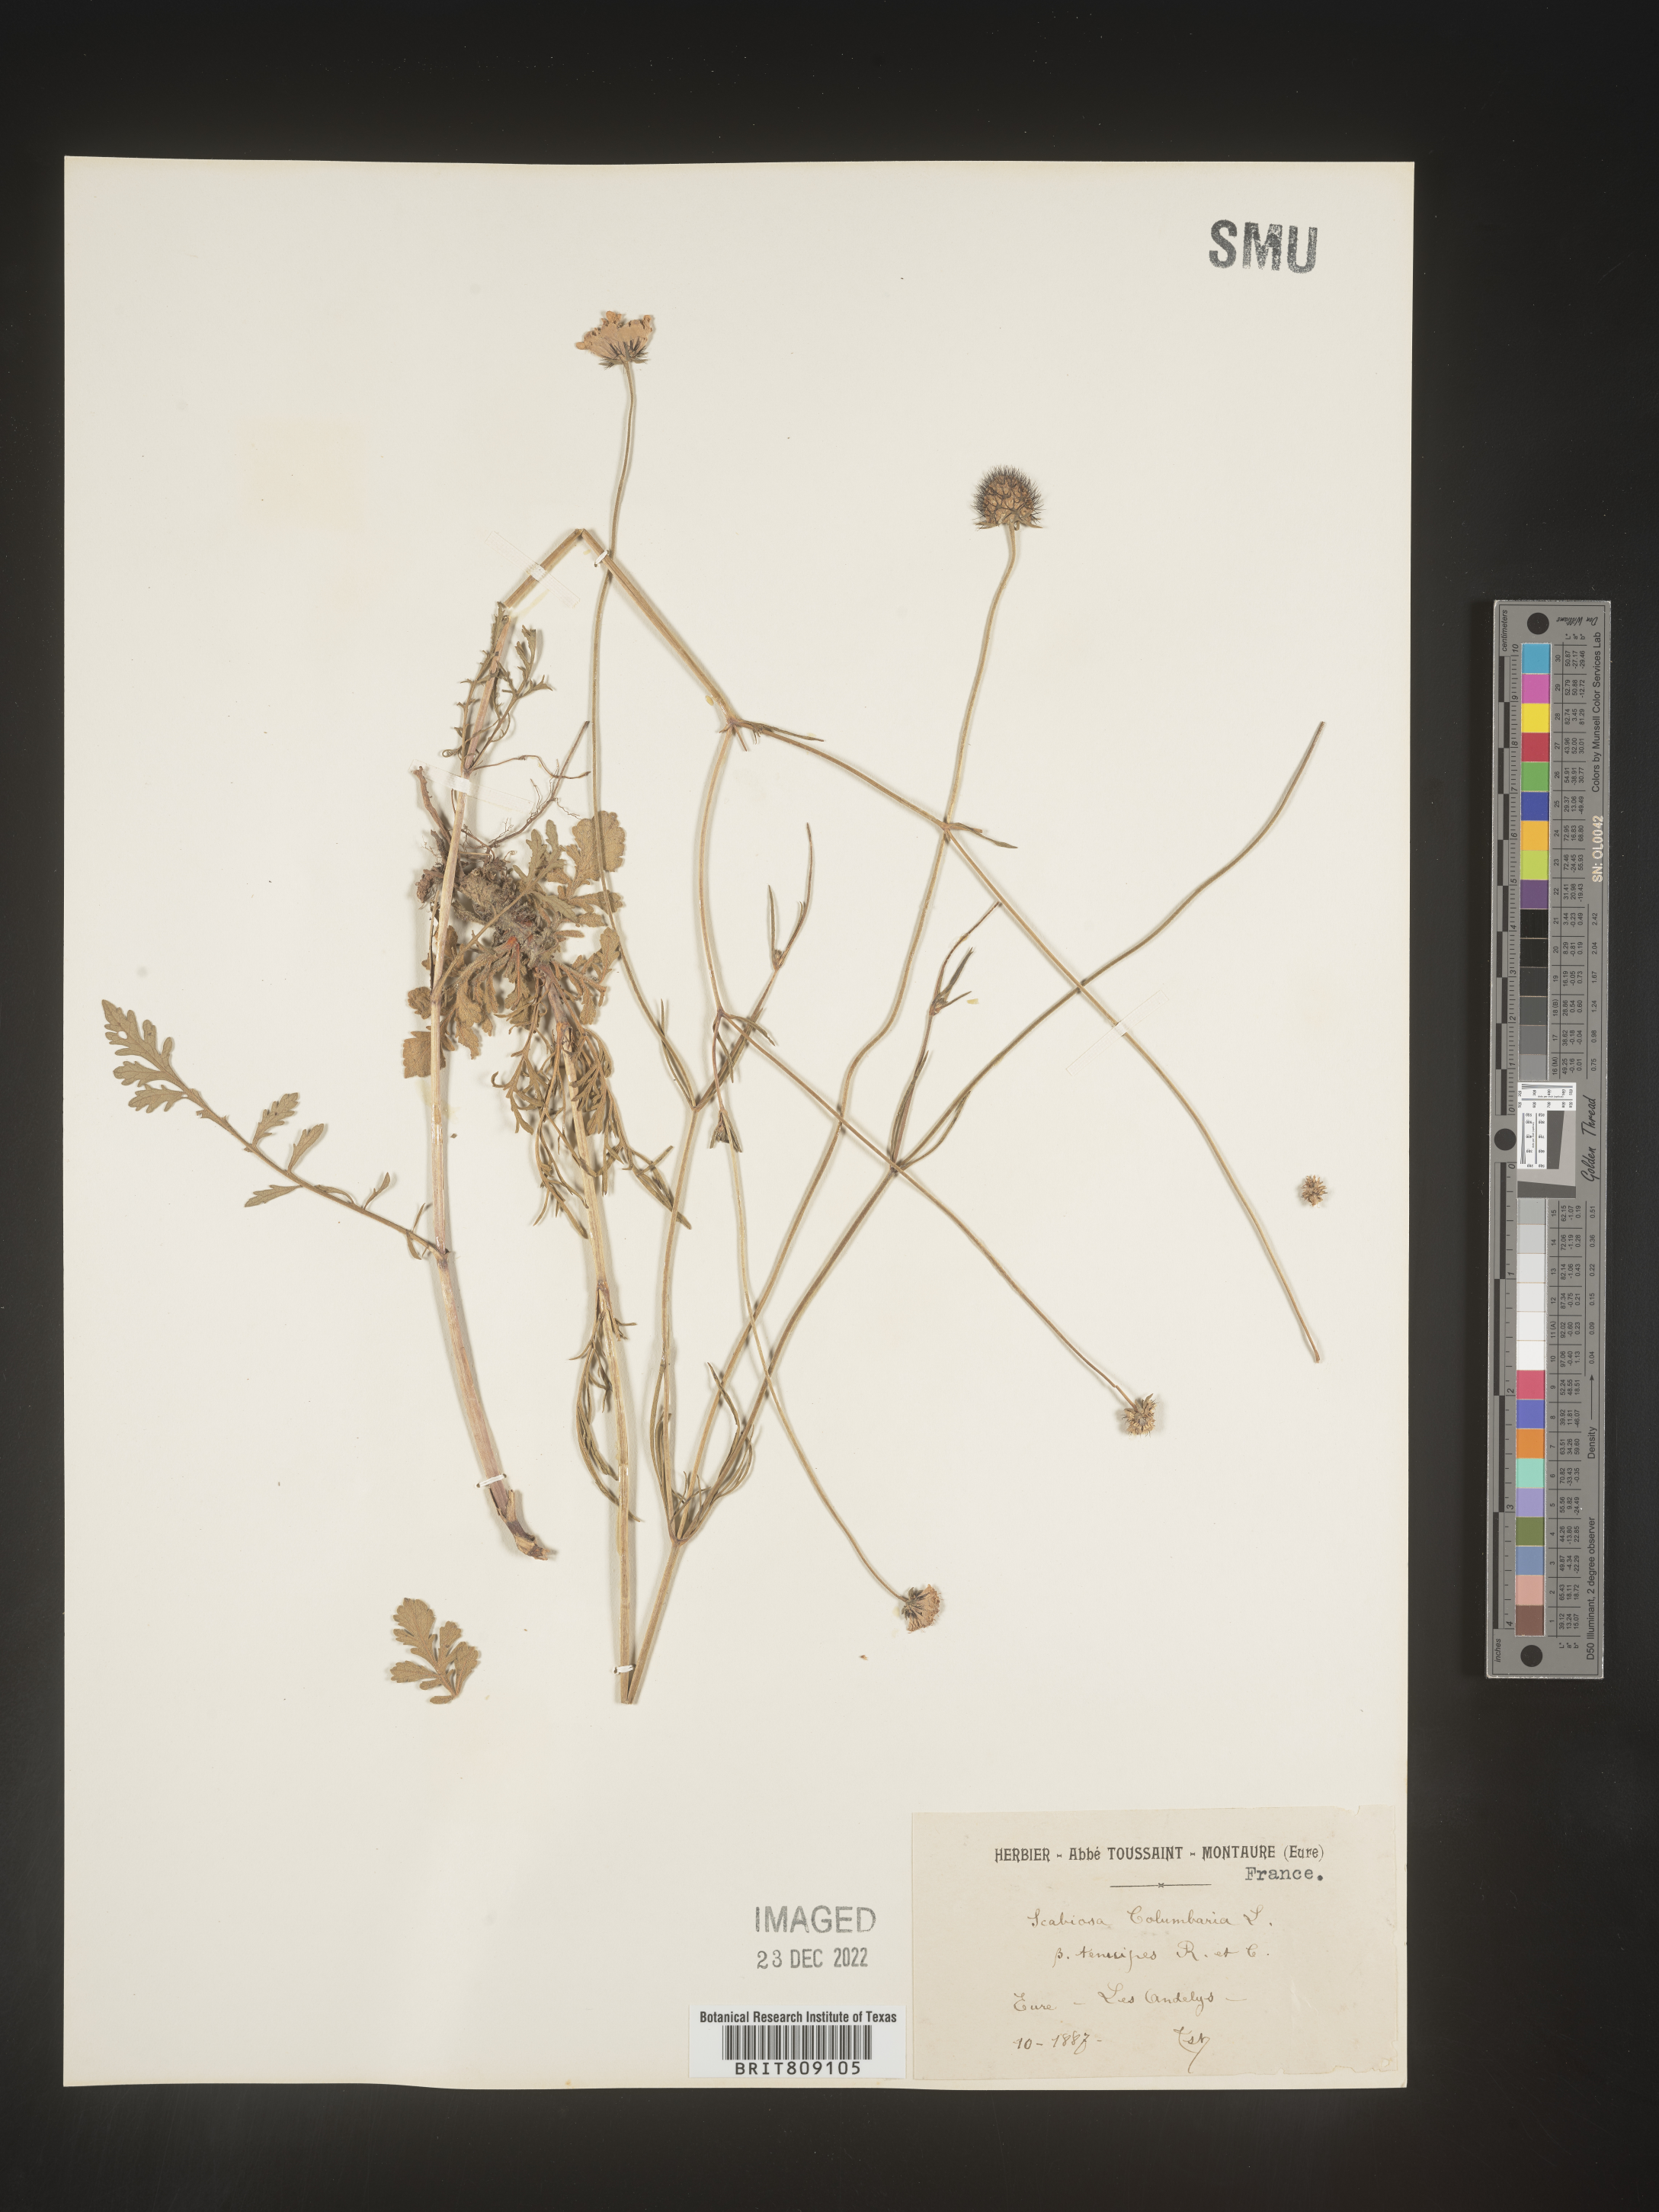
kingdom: Plantae
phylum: Tracheophyta
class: Magnoliopsida
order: Dipsacales
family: Caprifoliaceae
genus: Scabiosa
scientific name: Scabiosa
